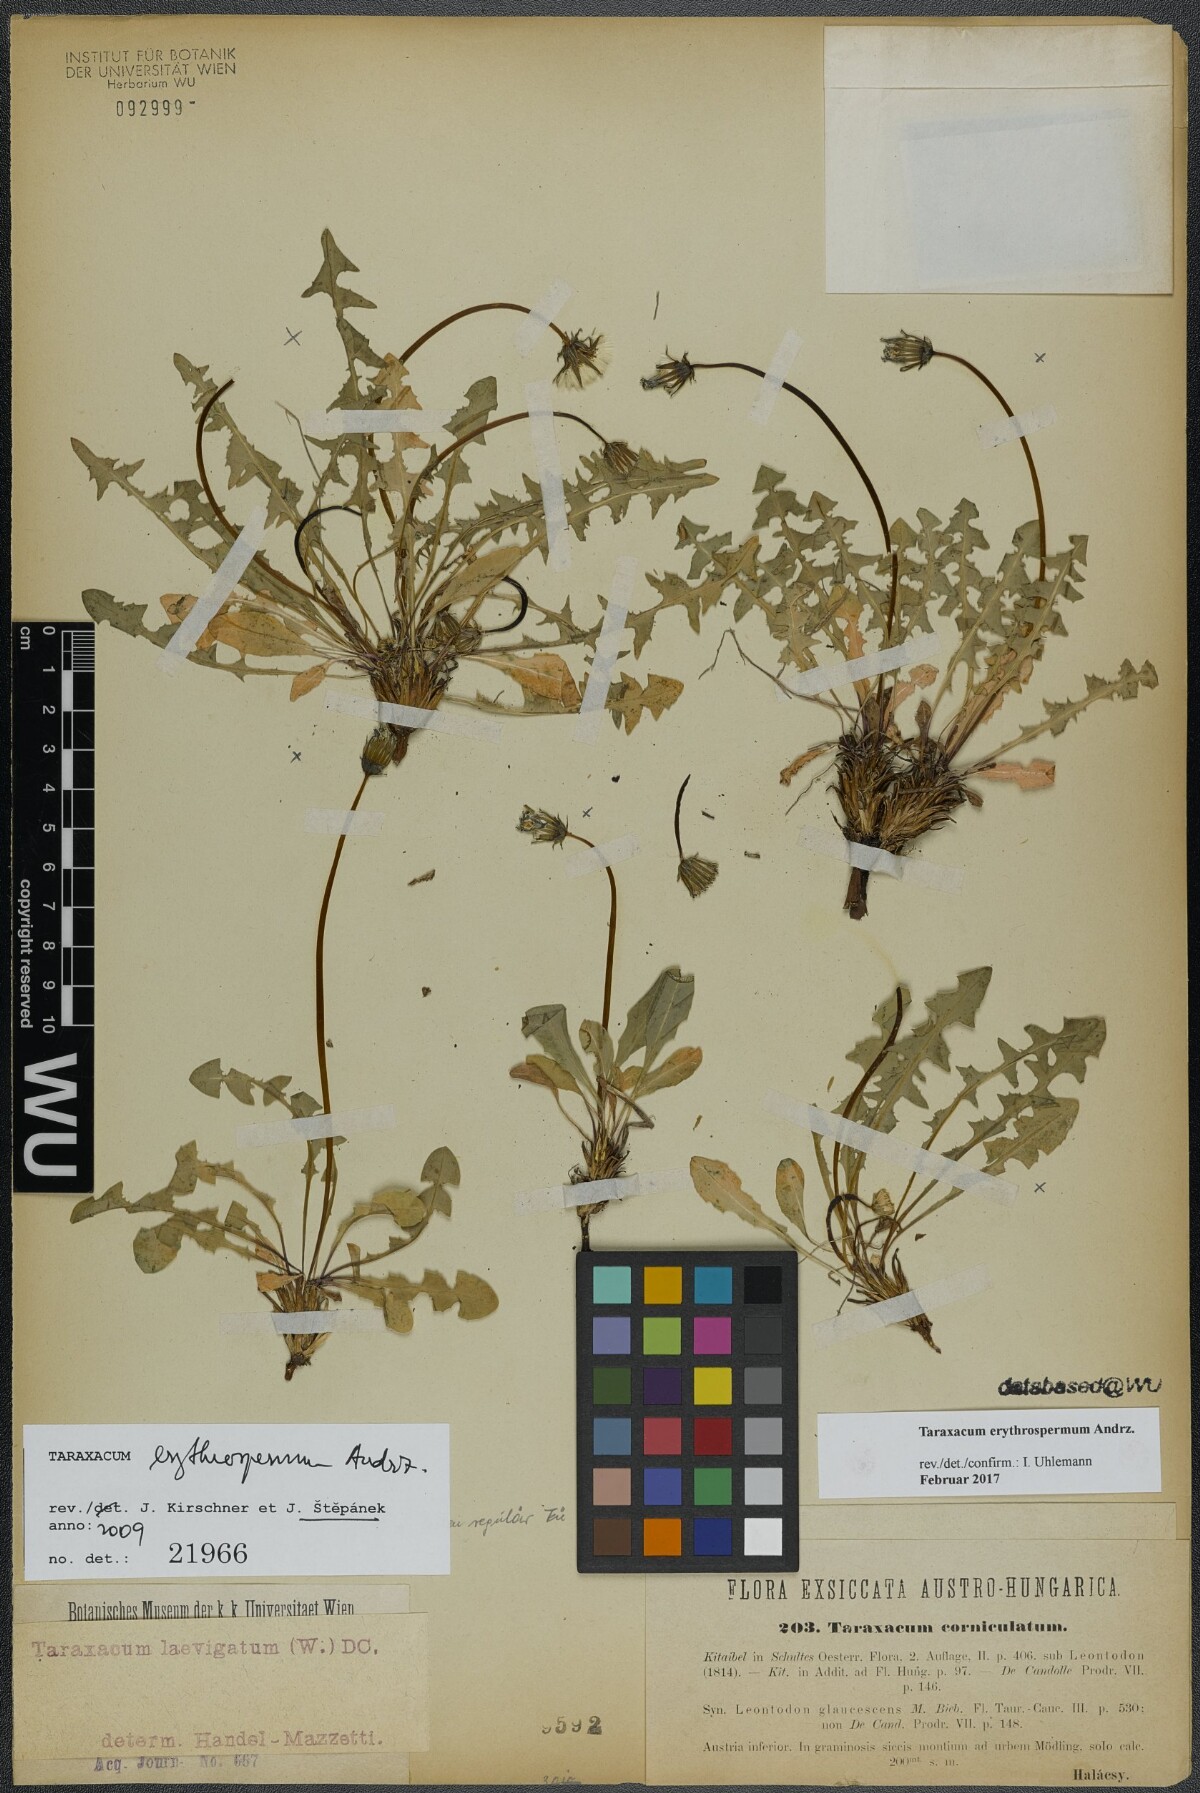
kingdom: Plantae
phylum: Tracheophyta
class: Magnoliopsida
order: Asterales
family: Asteraceae
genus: Taraxacum
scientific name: Taraxacum erythrospermum
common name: Rock dandelion
